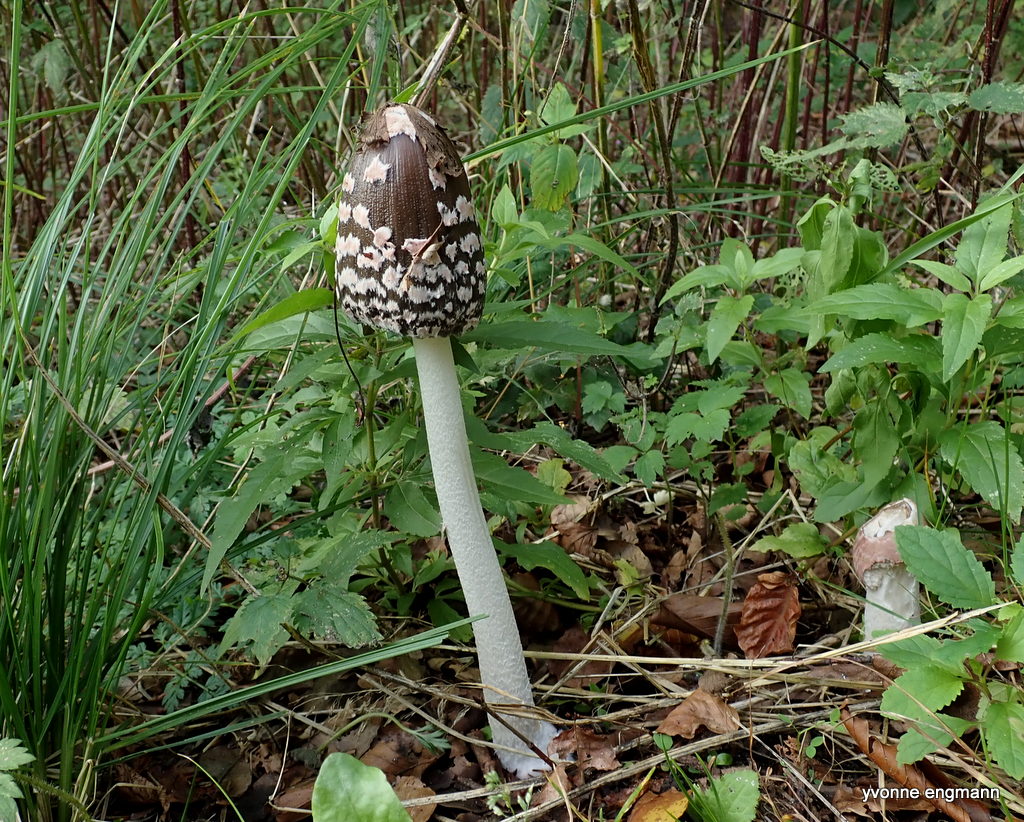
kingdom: Fungi
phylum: Basidiomycota
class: Agaricomycetes
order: Agaricales
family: Psathyrellaceae
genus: Coprinopsis
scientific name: Coprinopsis picacea
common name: skade-blækhat
